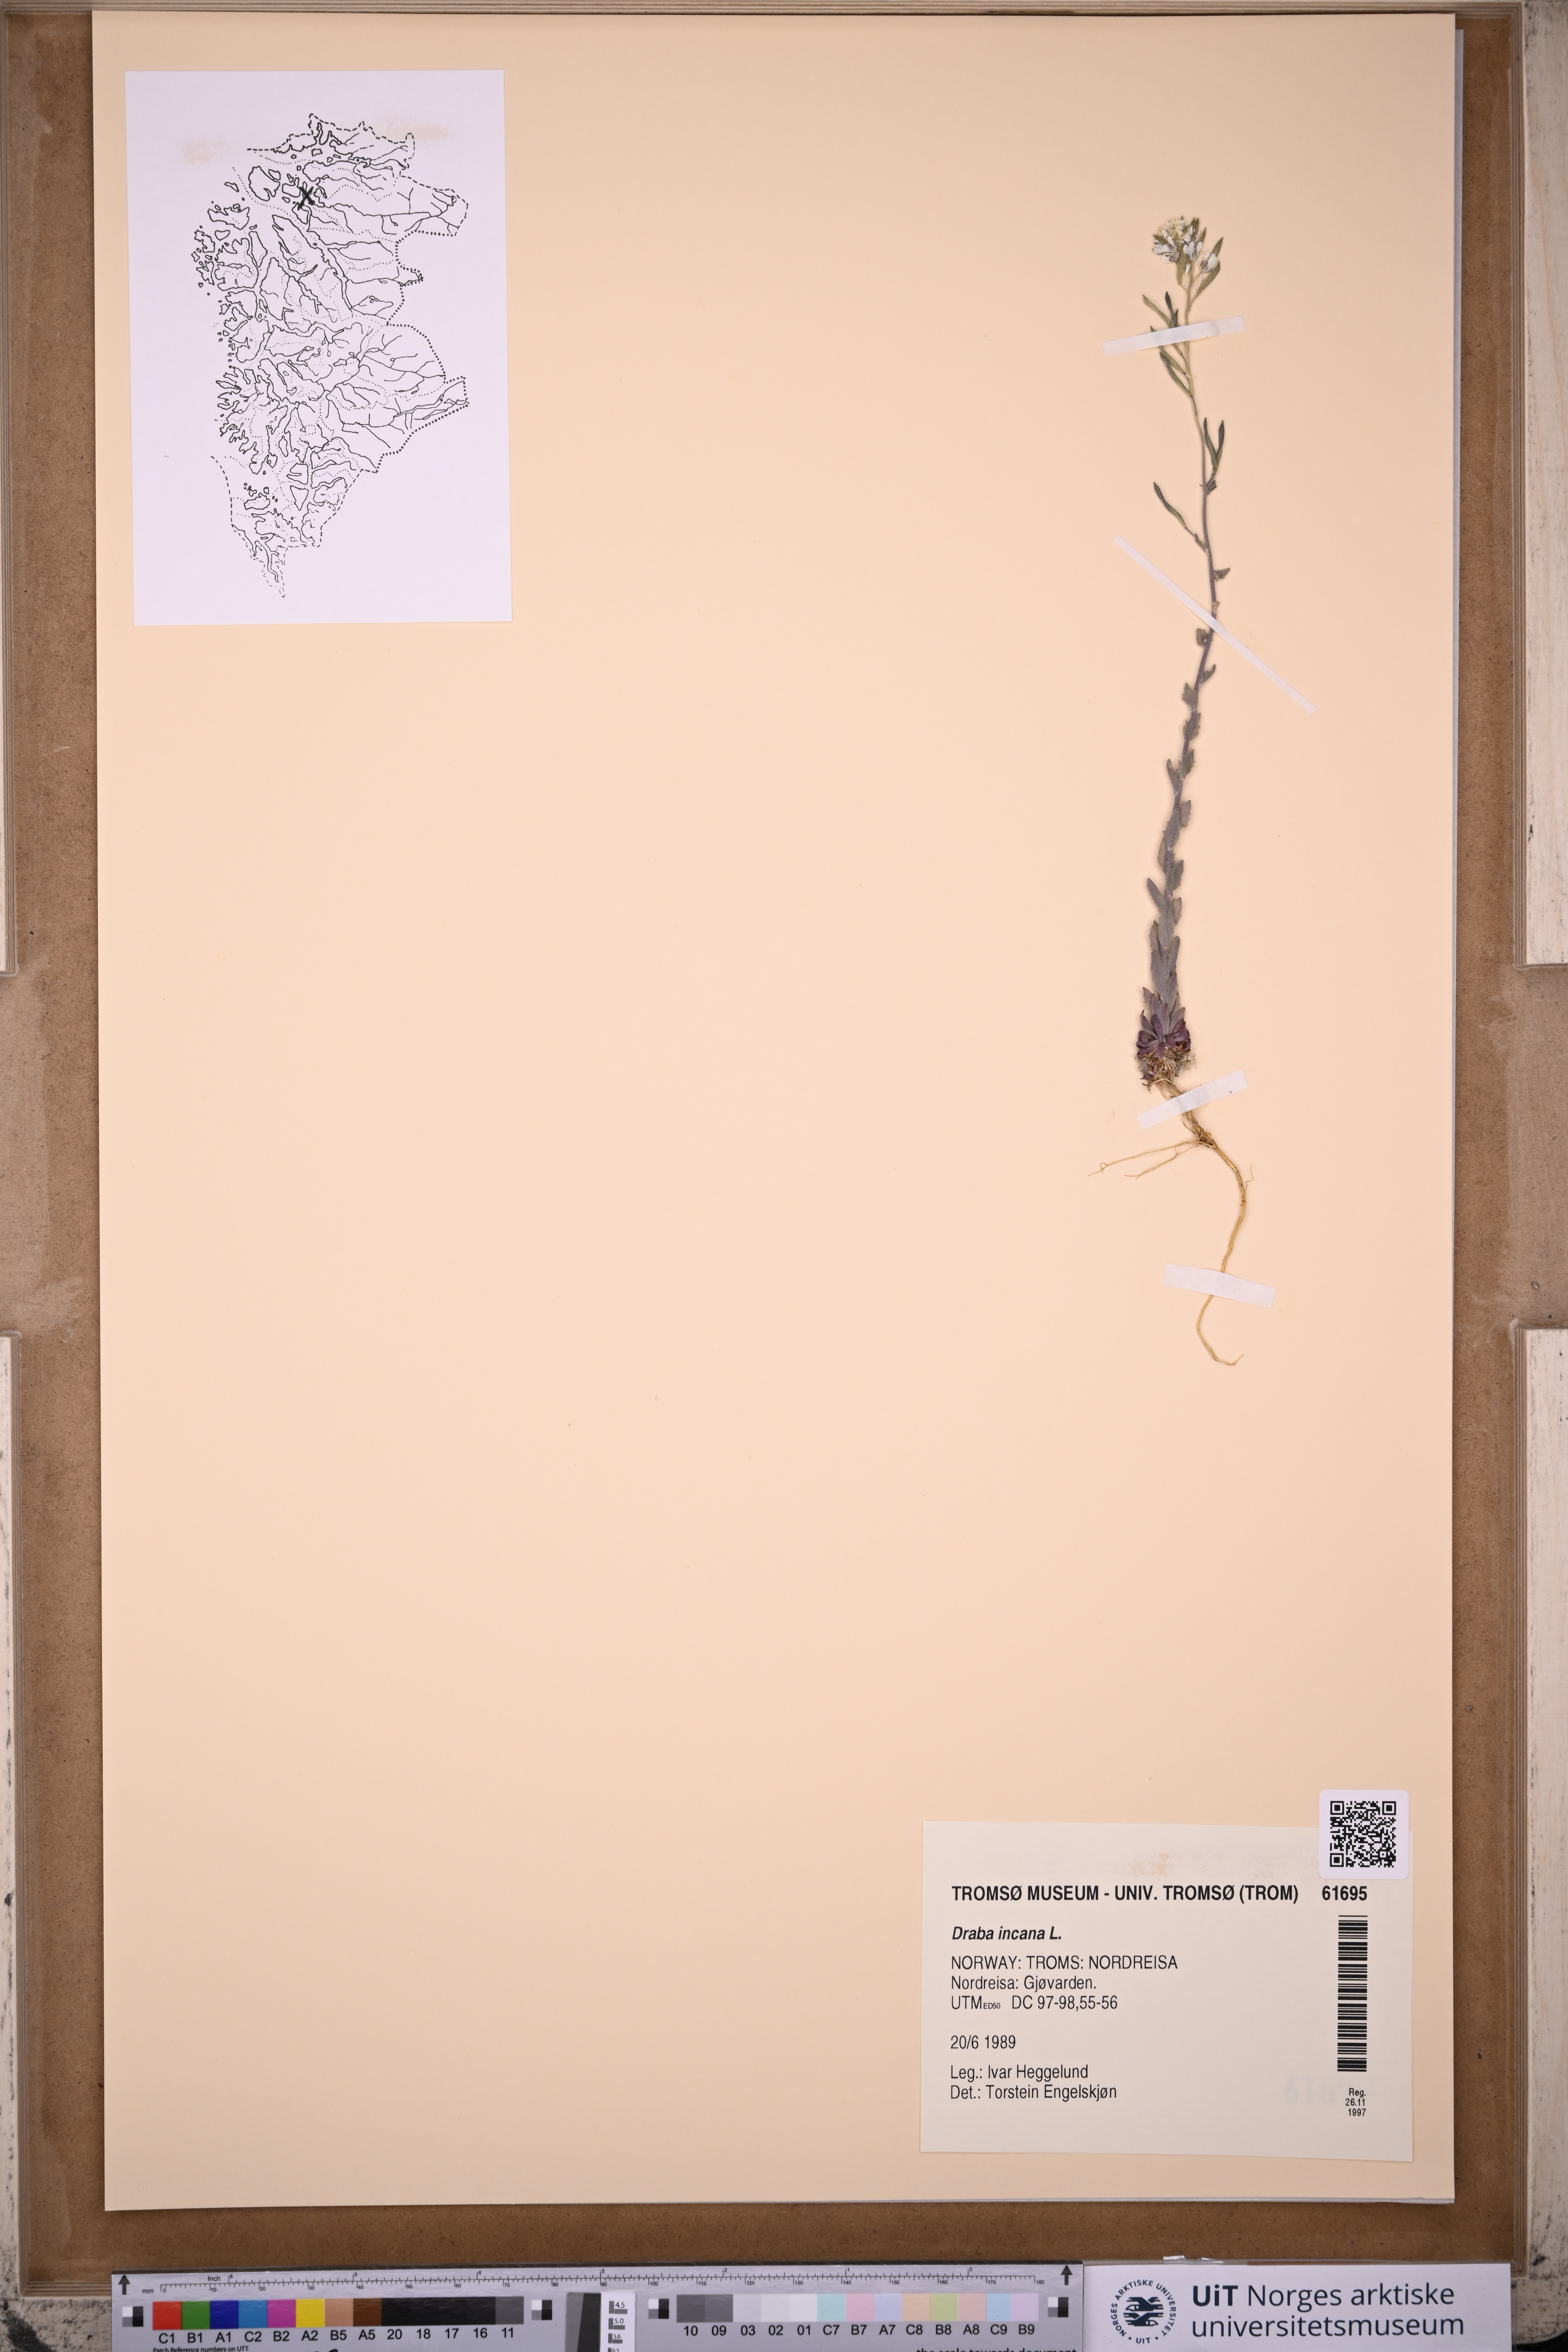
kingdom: Plantae
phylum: Tracheophyta
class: Magnoliopsida
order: Brassicales
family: Brassicaceae
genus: Draba
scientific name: Draba incana
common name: Hoary whitlow-grass
